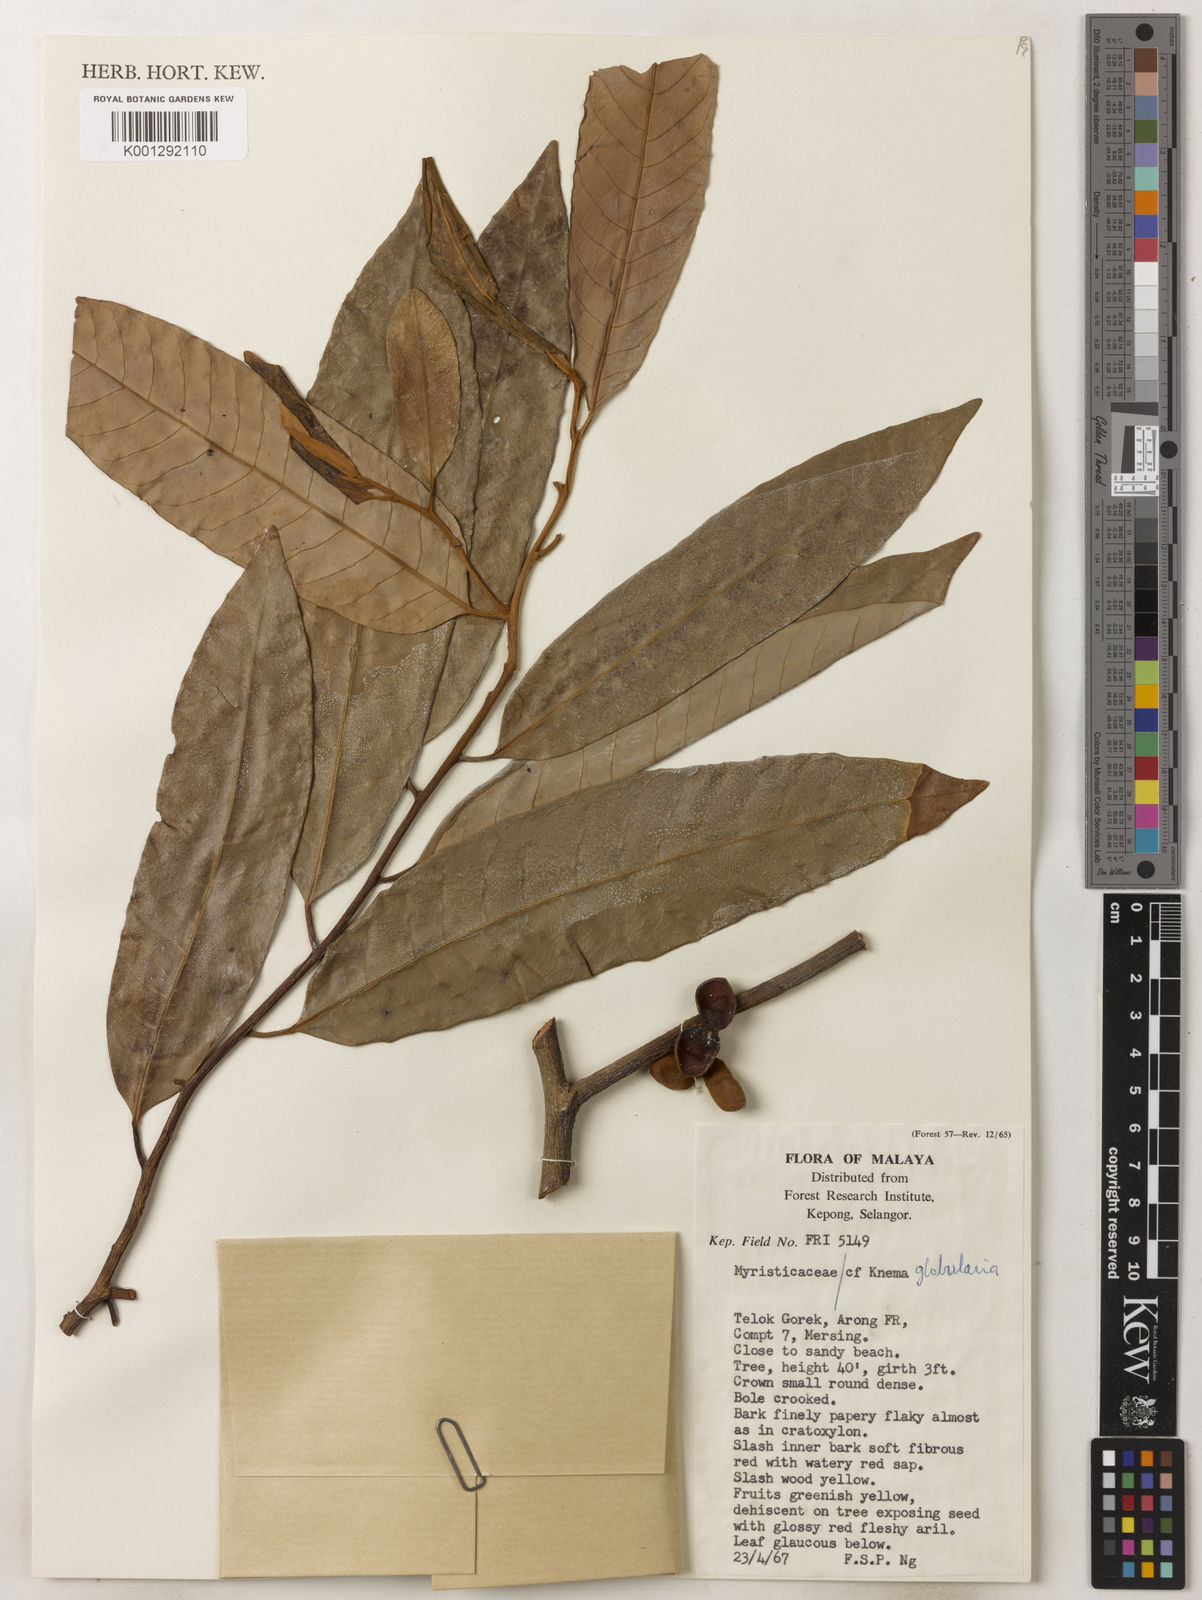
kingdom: Plantae
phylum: Tracheophyta
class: Magnoliopsida
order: Magnoliales
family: Myristicaceae
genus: Knema
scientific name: Knema globularia
